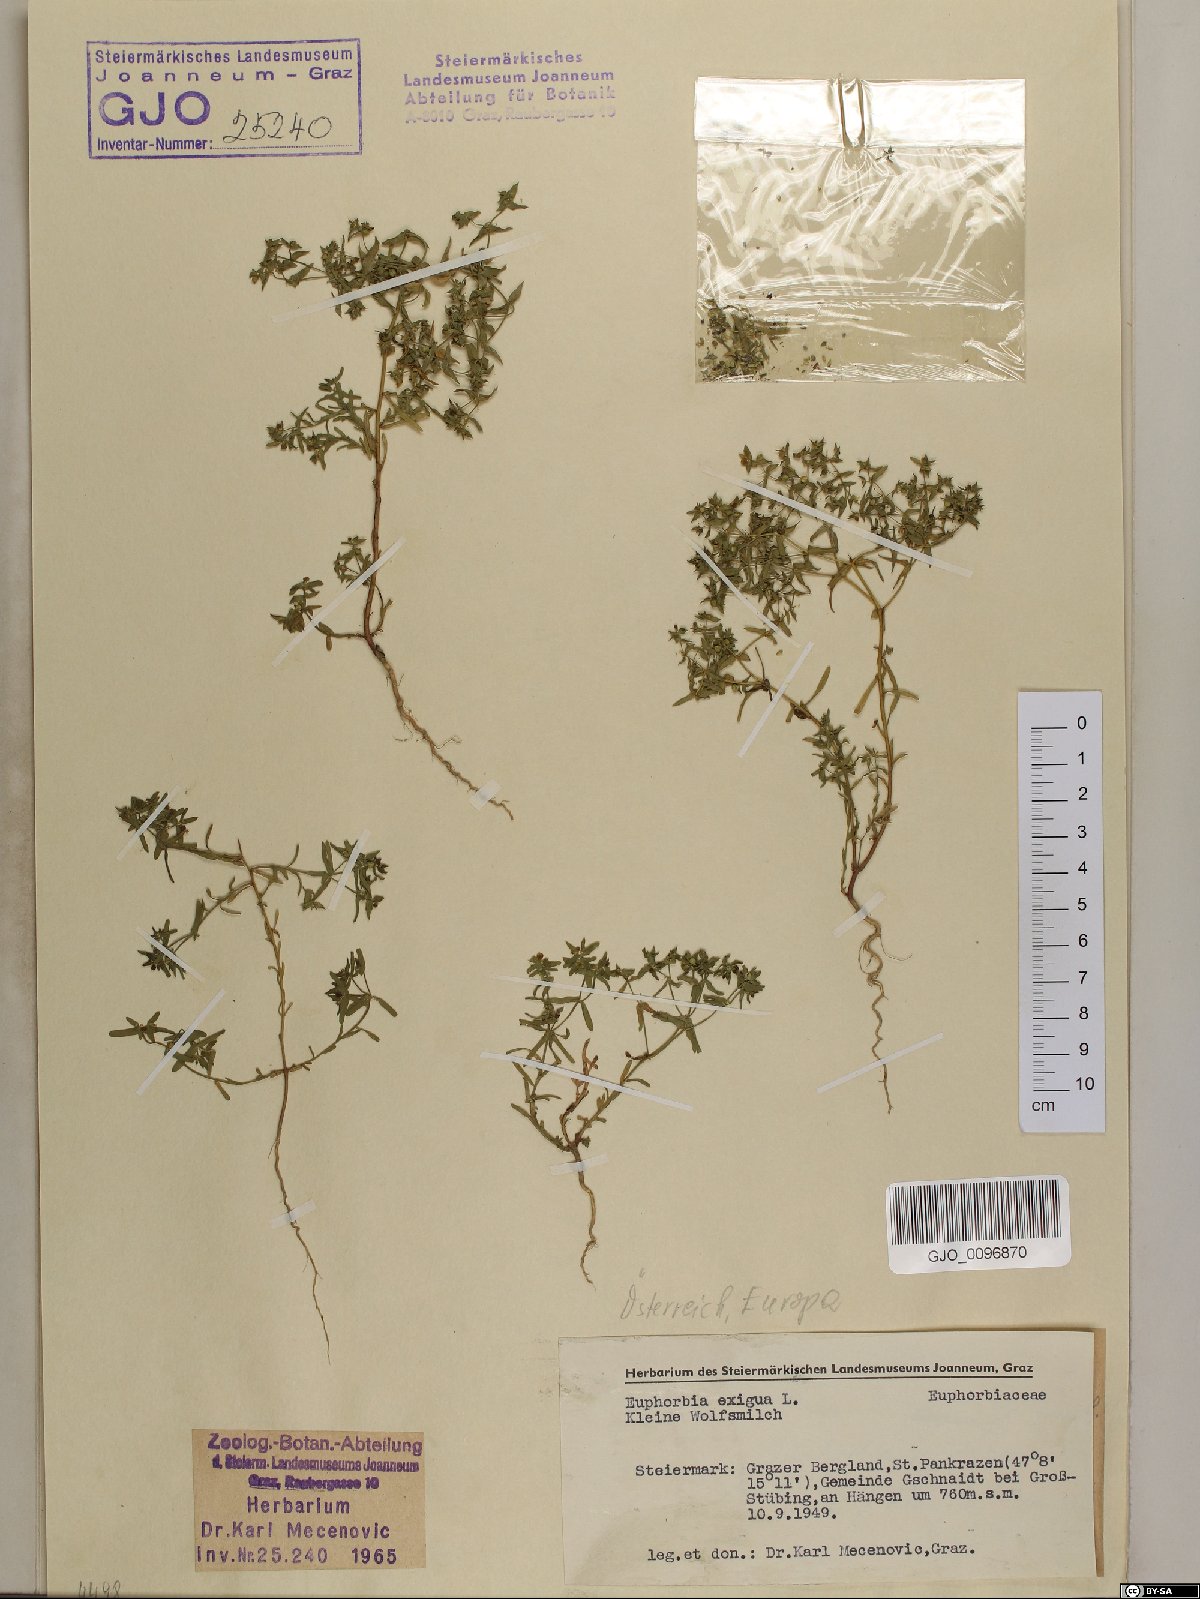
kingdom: Plantae
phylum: Tracheophyta
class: Magnoliopsida
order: Malpighiales
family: Euphorbiaceae
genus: Euphorbia
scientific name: Euphorbia exigua
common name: Dwarf spurge
